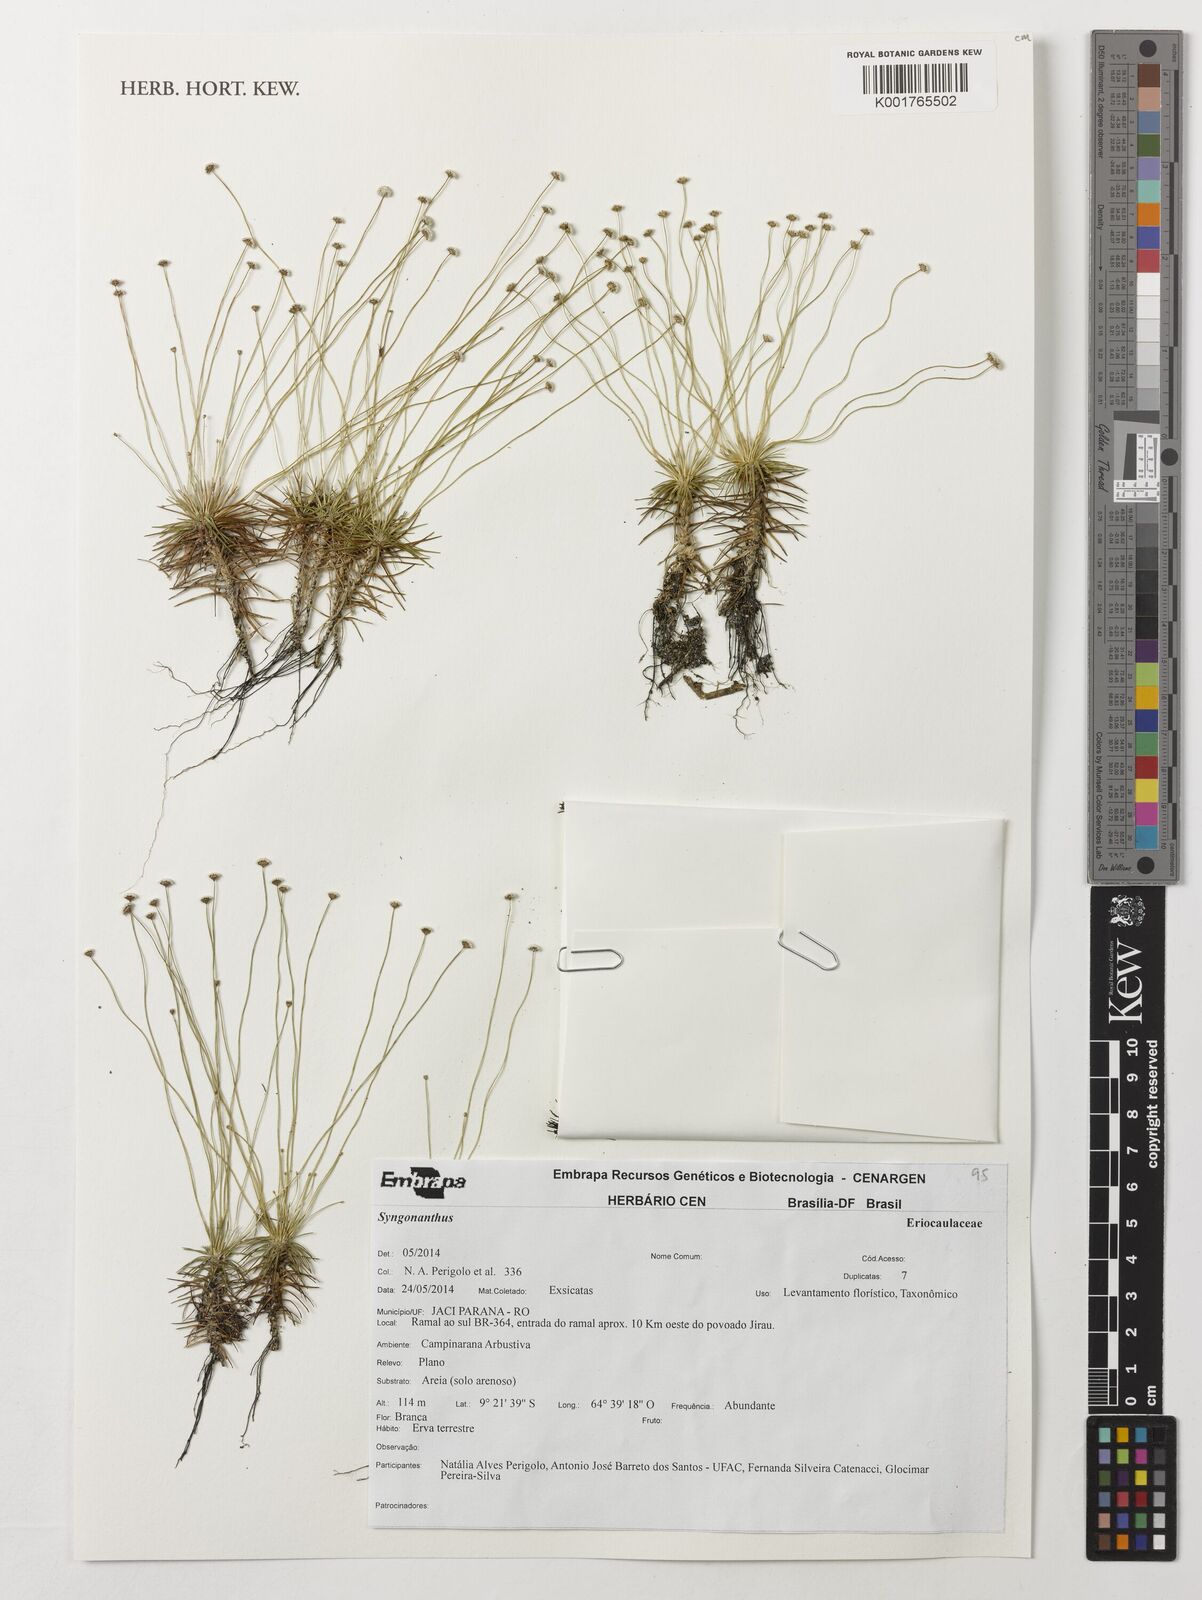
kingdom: Plantae
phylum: Tracheophyta
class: Liliopsida
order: Poales
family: Eriocaulaceae
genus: Syngonanthus
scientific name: Syngonanthus
